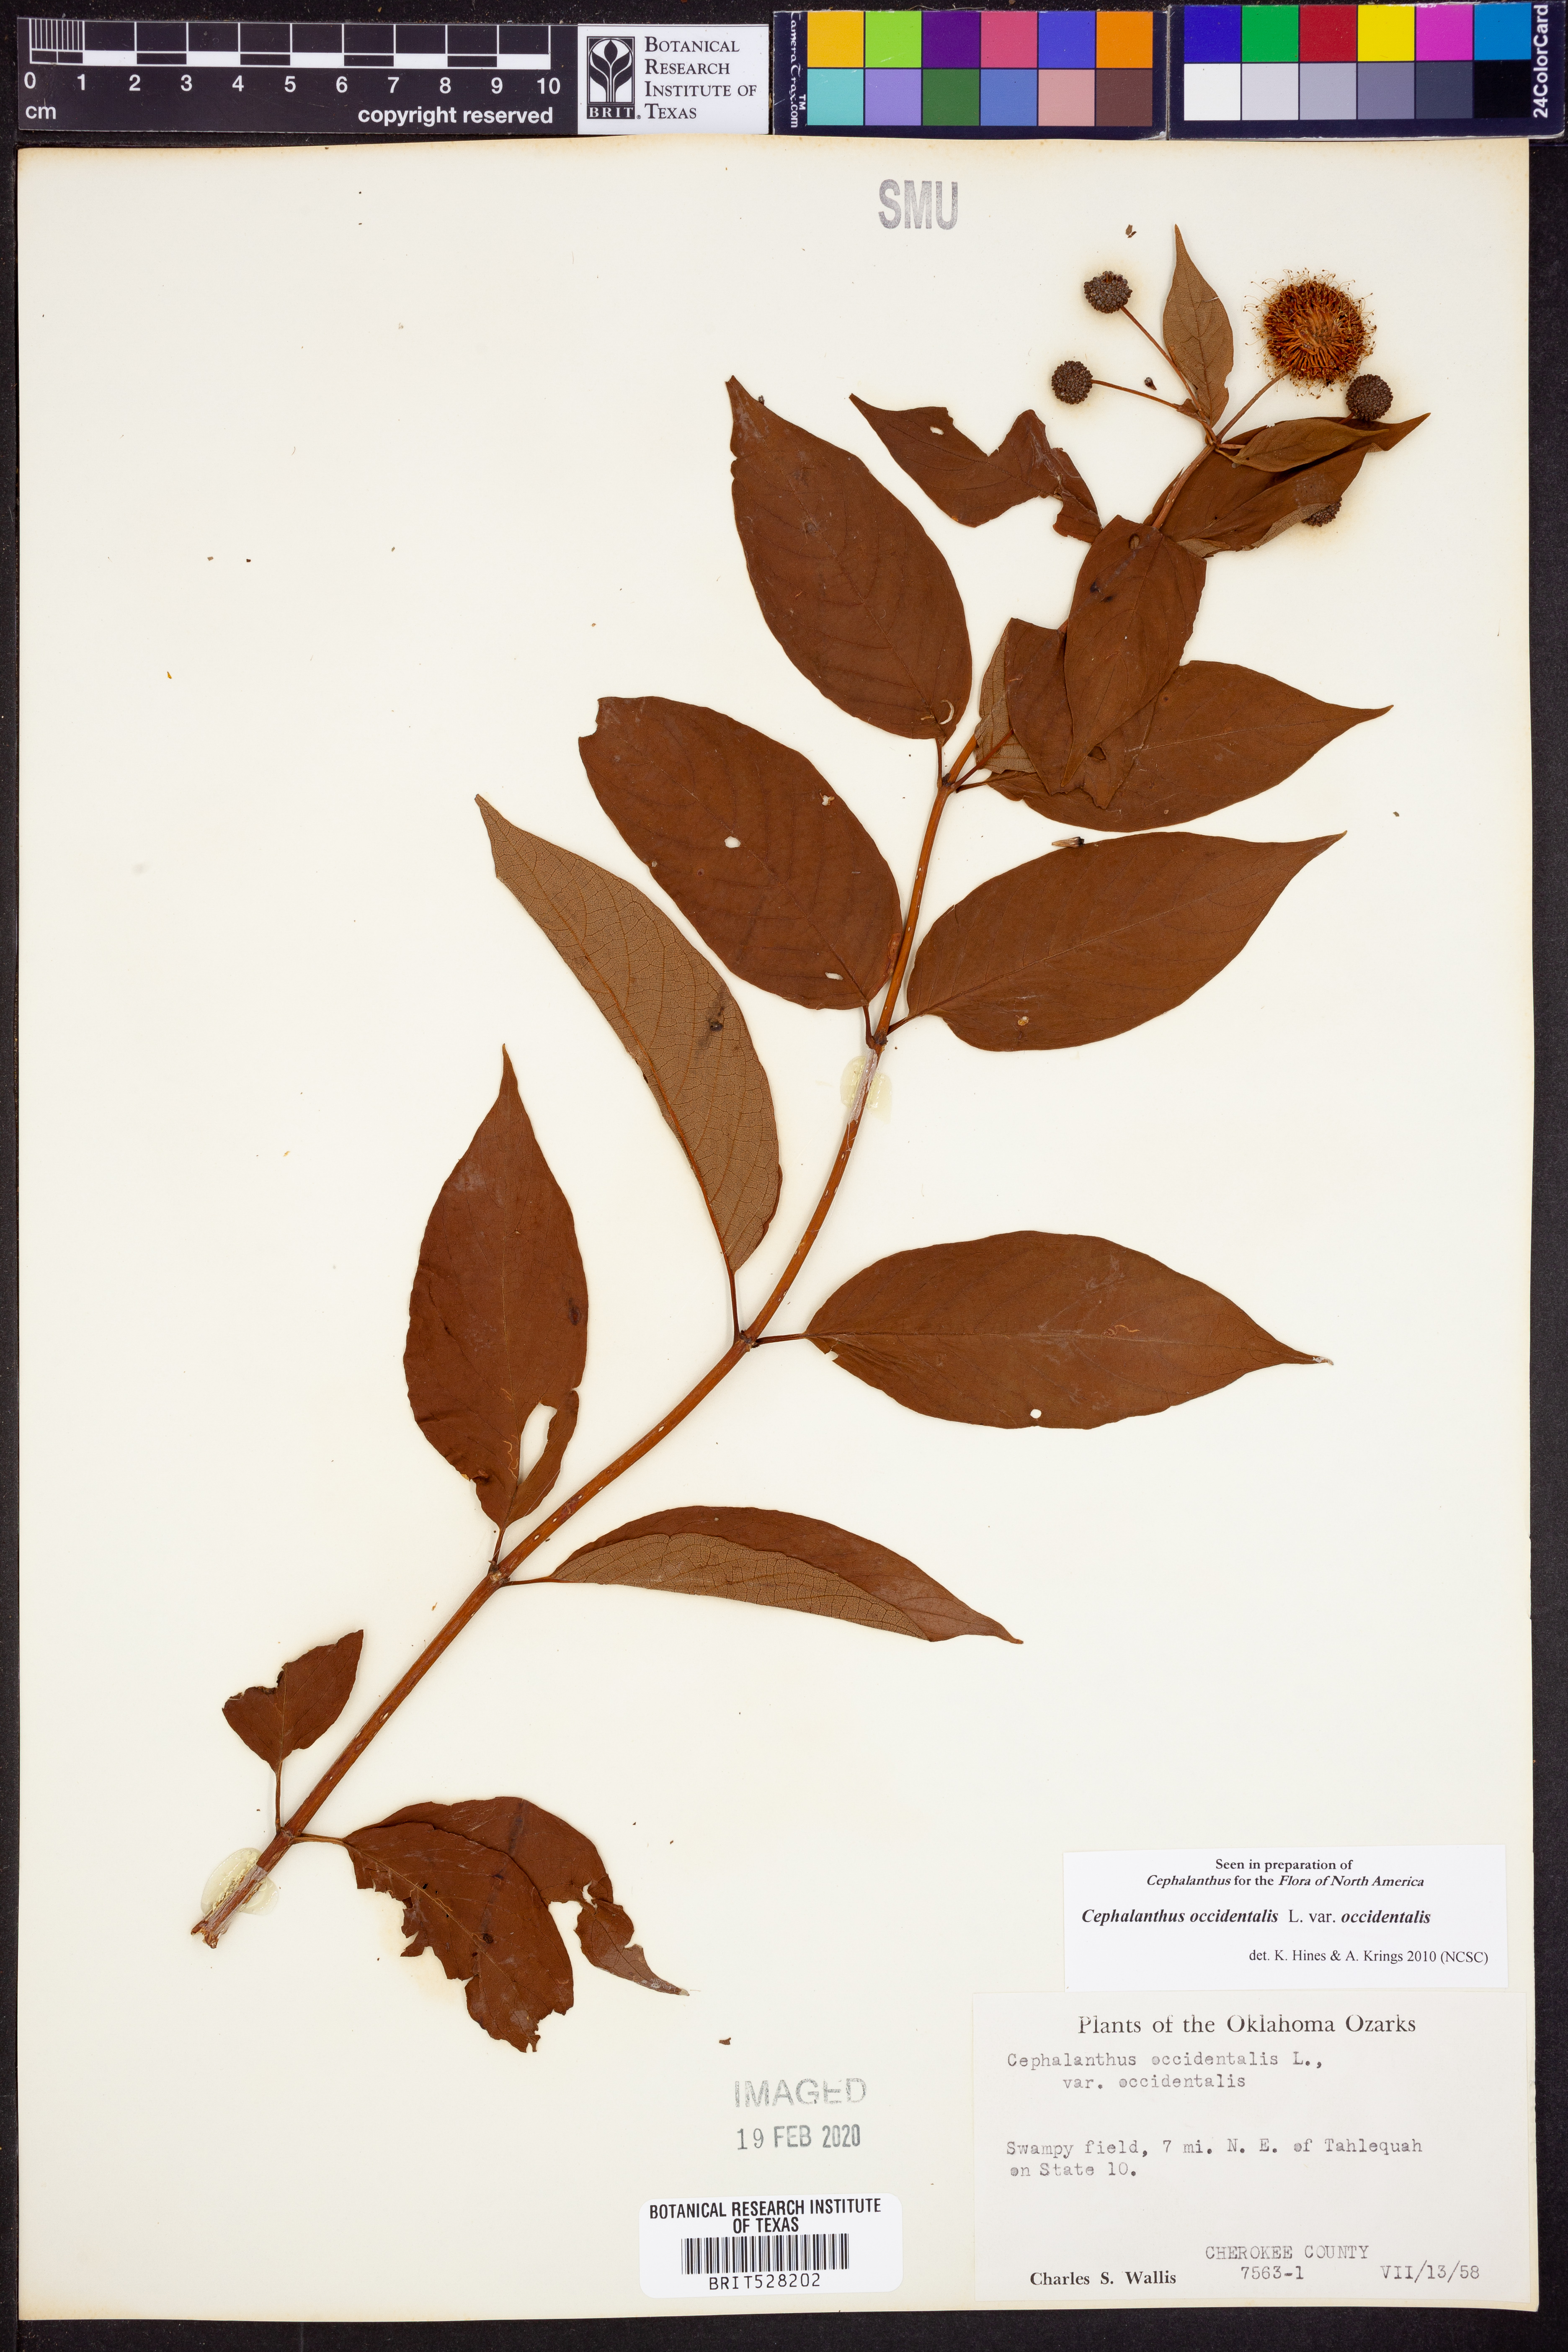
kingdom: Plantae
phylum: Tracheophyta
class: Magnoliopsida
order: Gentianales
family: Rubiaceae
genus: Cephalanthus
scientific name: Cephalanthus occidentalis
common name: Button-willow
